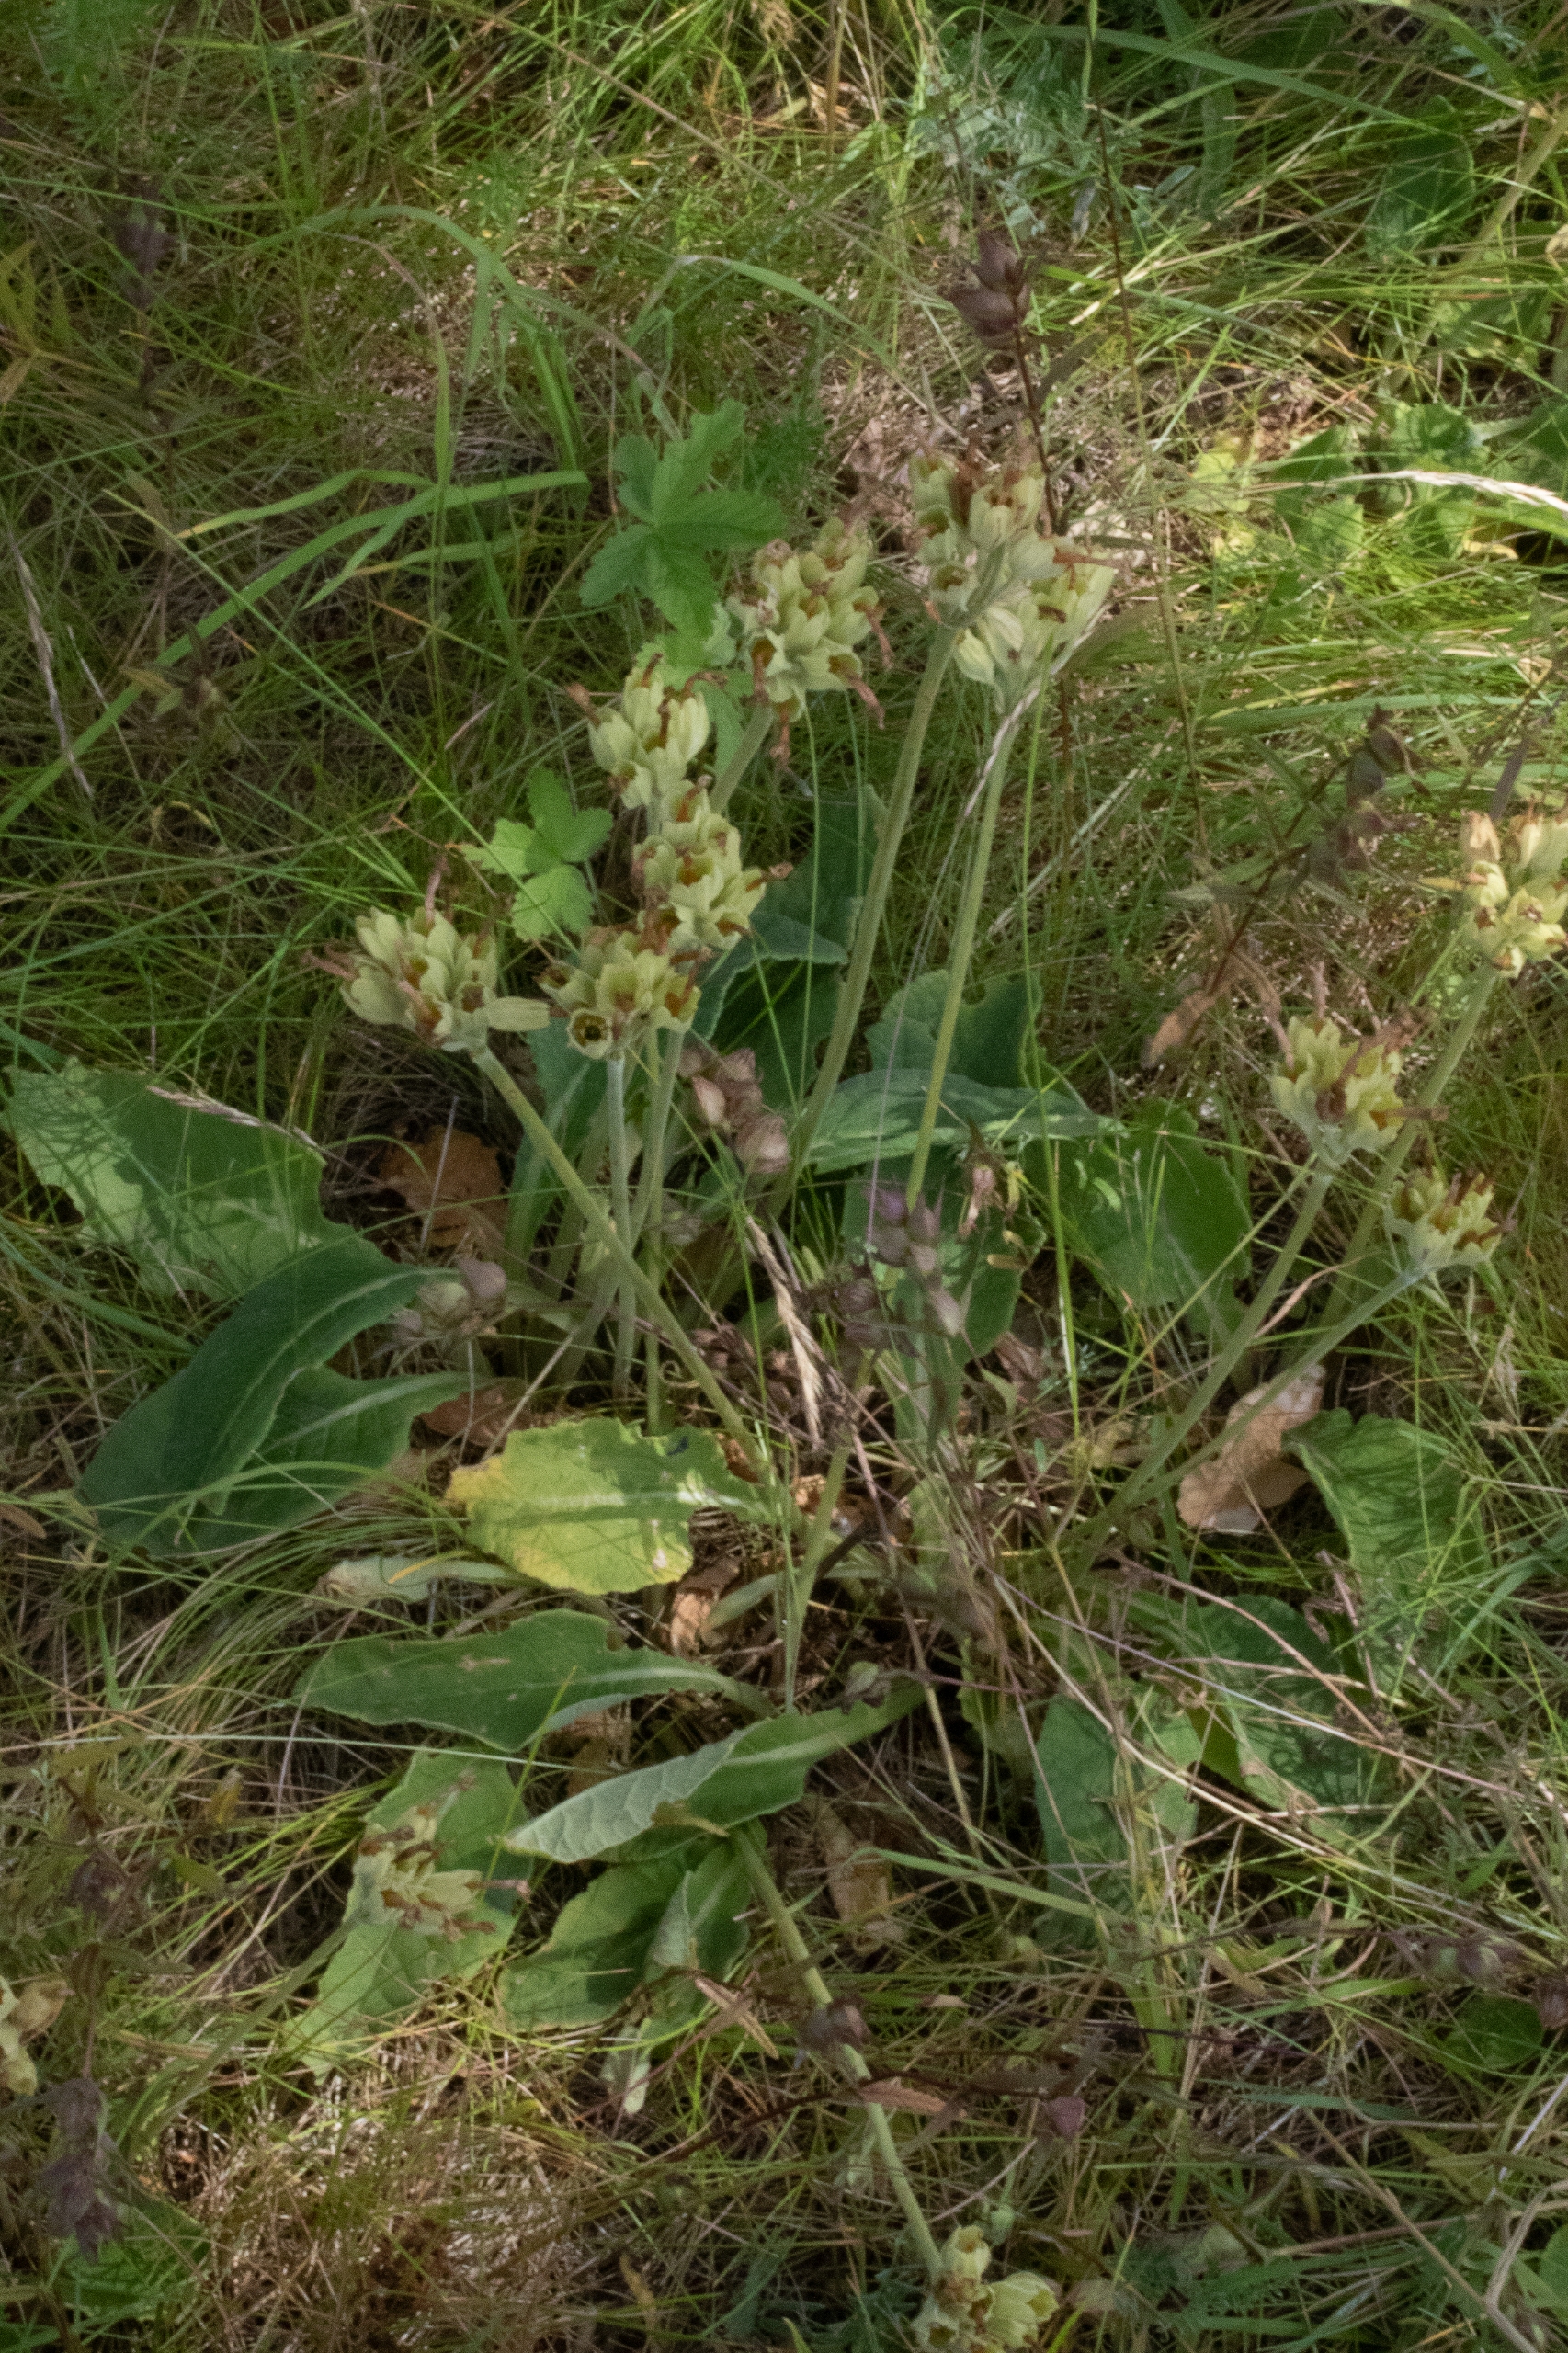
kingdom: Plantae
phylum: Tracheophyta
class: Magnoliopsida
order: Ericales
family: Primulaceae
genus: Primula
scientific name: Primula veris
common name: Hulkravet kodriver
